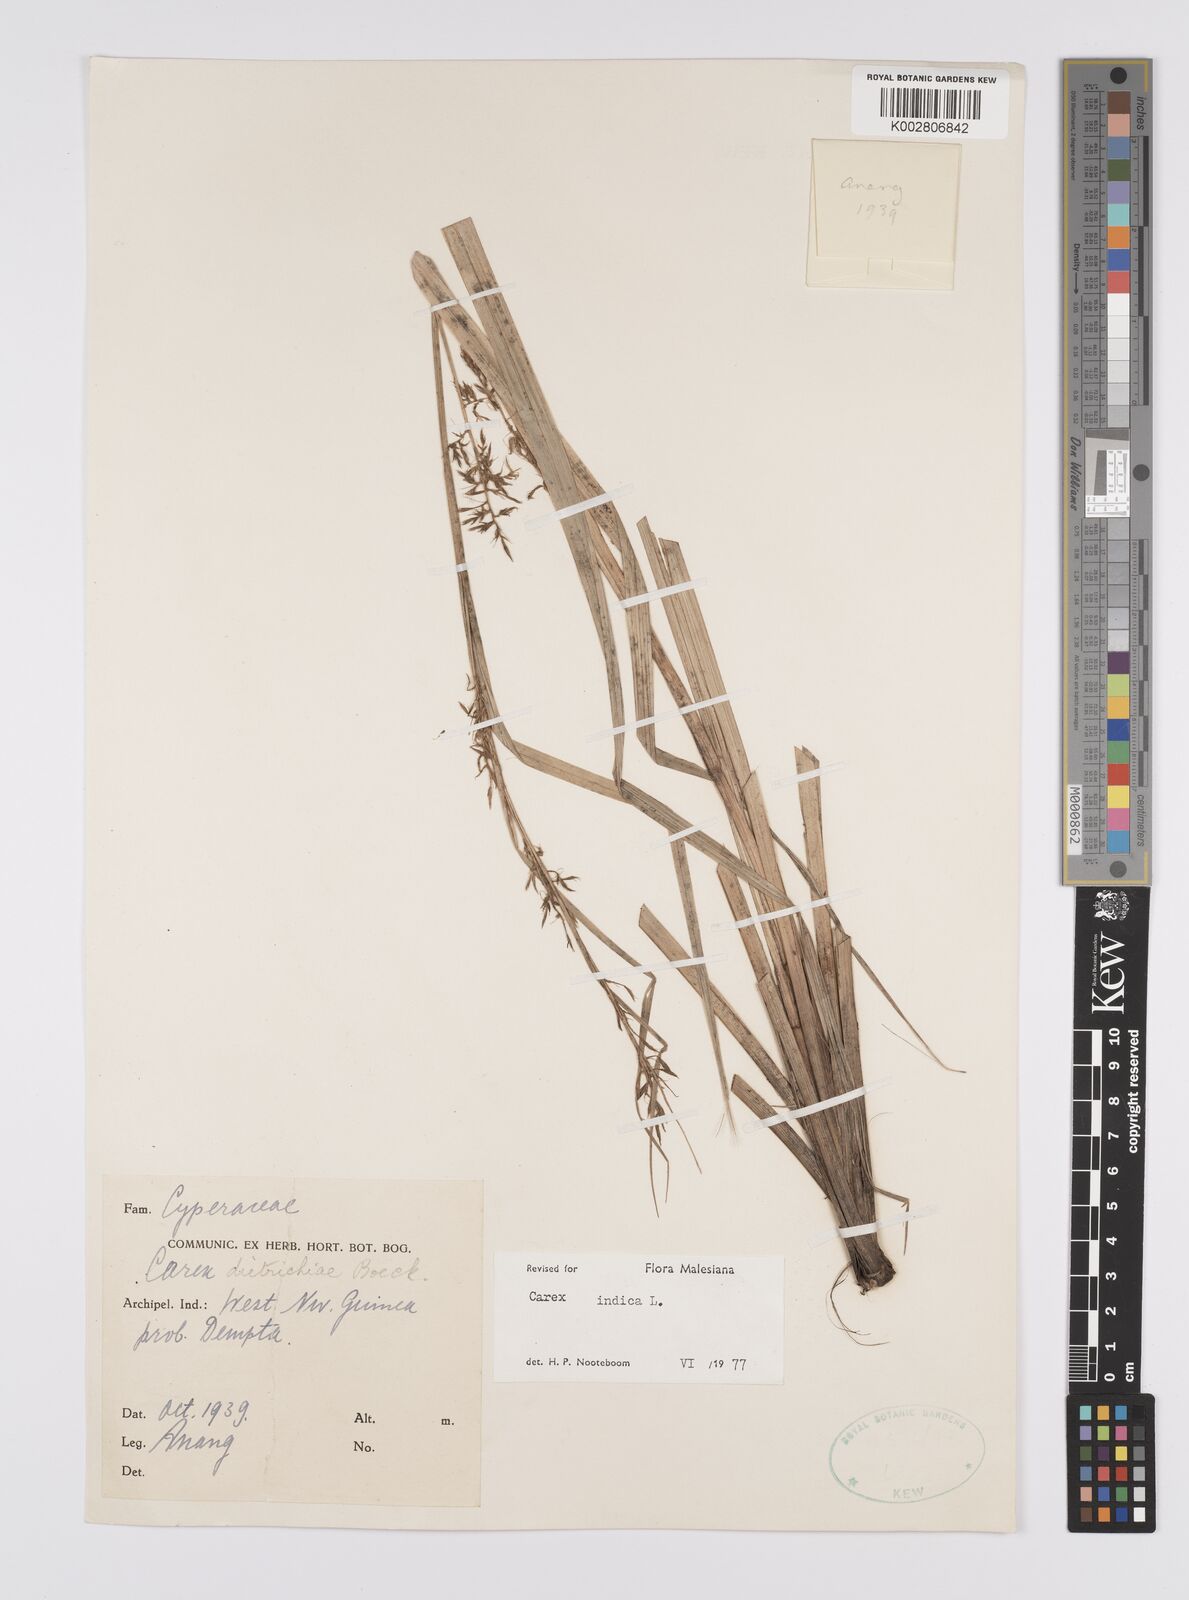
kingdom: Plantae
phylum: Tracheophyta
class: Liliopsida
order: Poales
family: Cyperaceae
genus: Carex
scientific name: Carex indica
